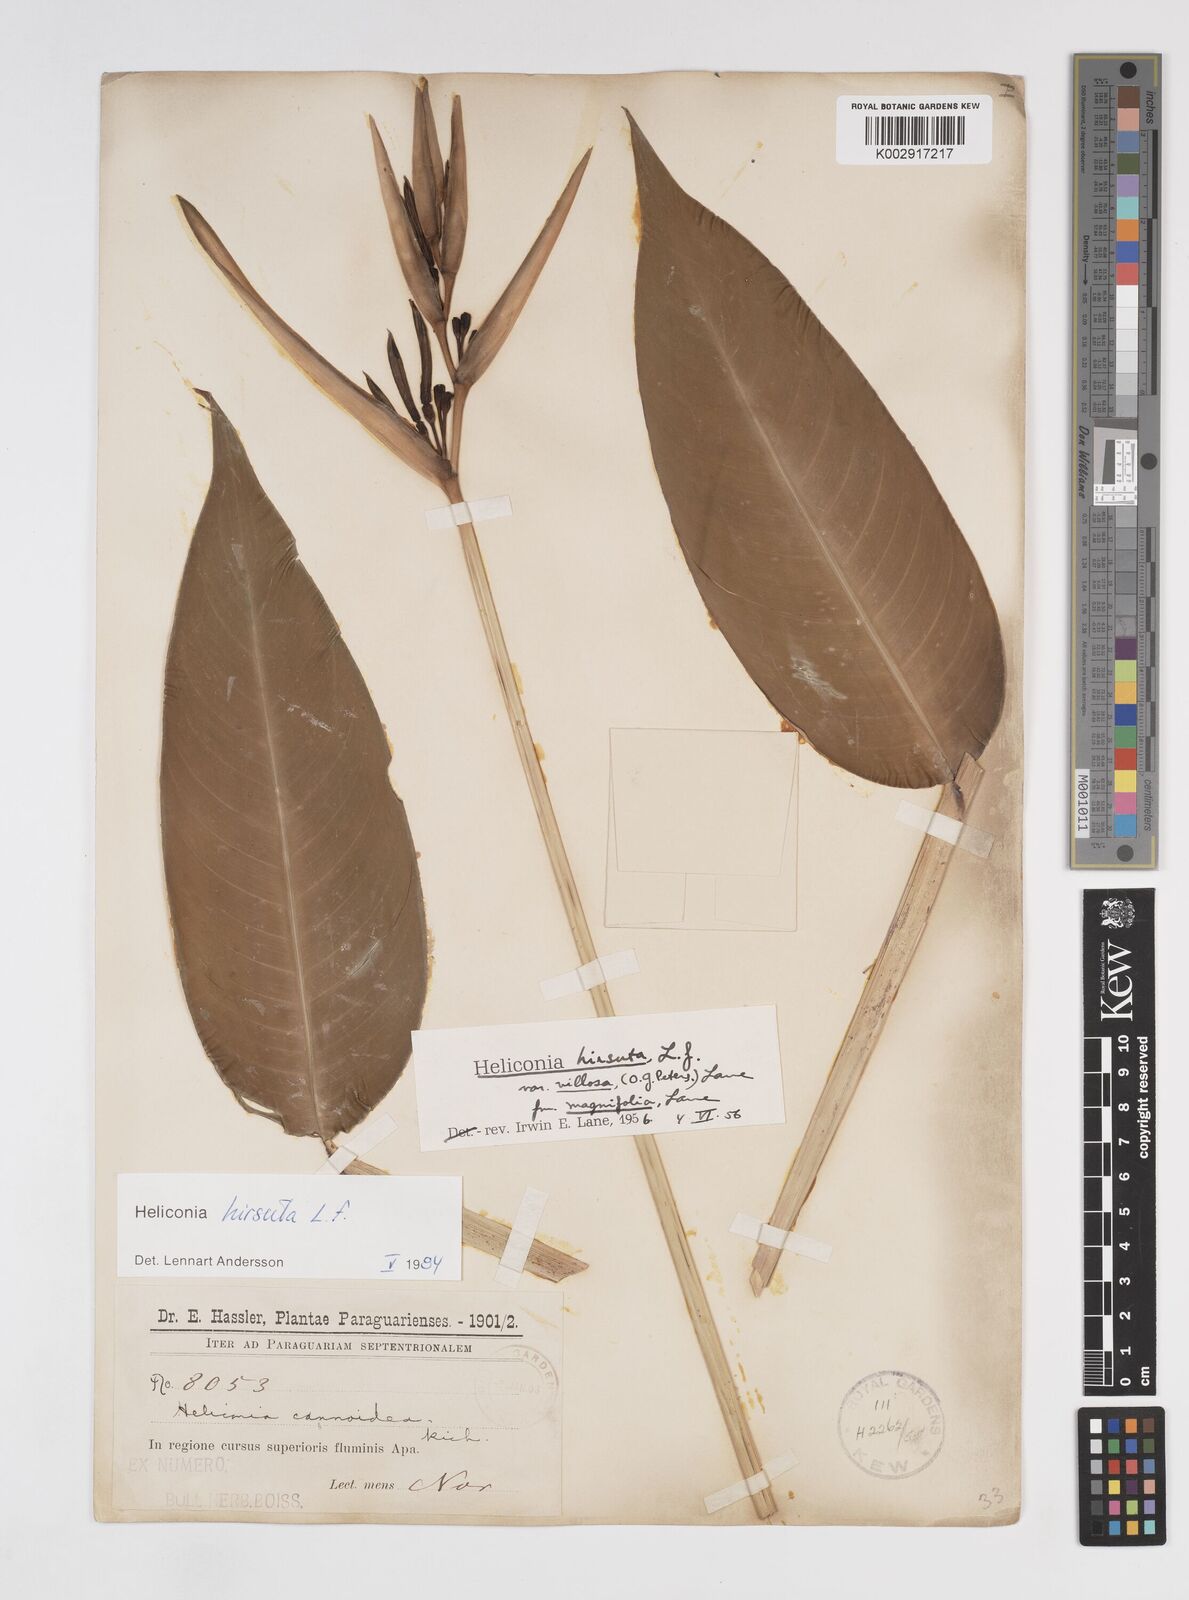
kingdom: Plantae
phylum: Tracheophyta
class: Liliopsida
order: Zingiberales
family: Heliconiaceae
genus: Heliconia
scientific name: Heliconia schiedeana
